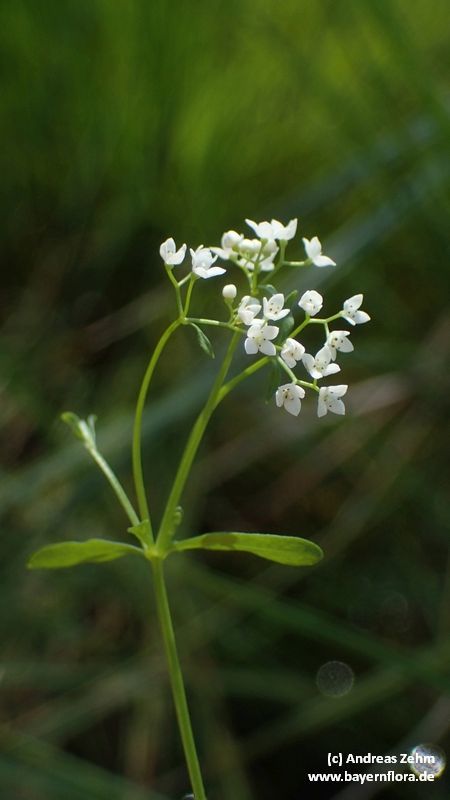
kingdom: Plantae
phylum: Tracheophyta
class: Magnoliopsida
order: Gentianales
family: Rubiaceae
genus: Galium
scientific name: Galium palustre
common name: Common marsh-bedstraw
